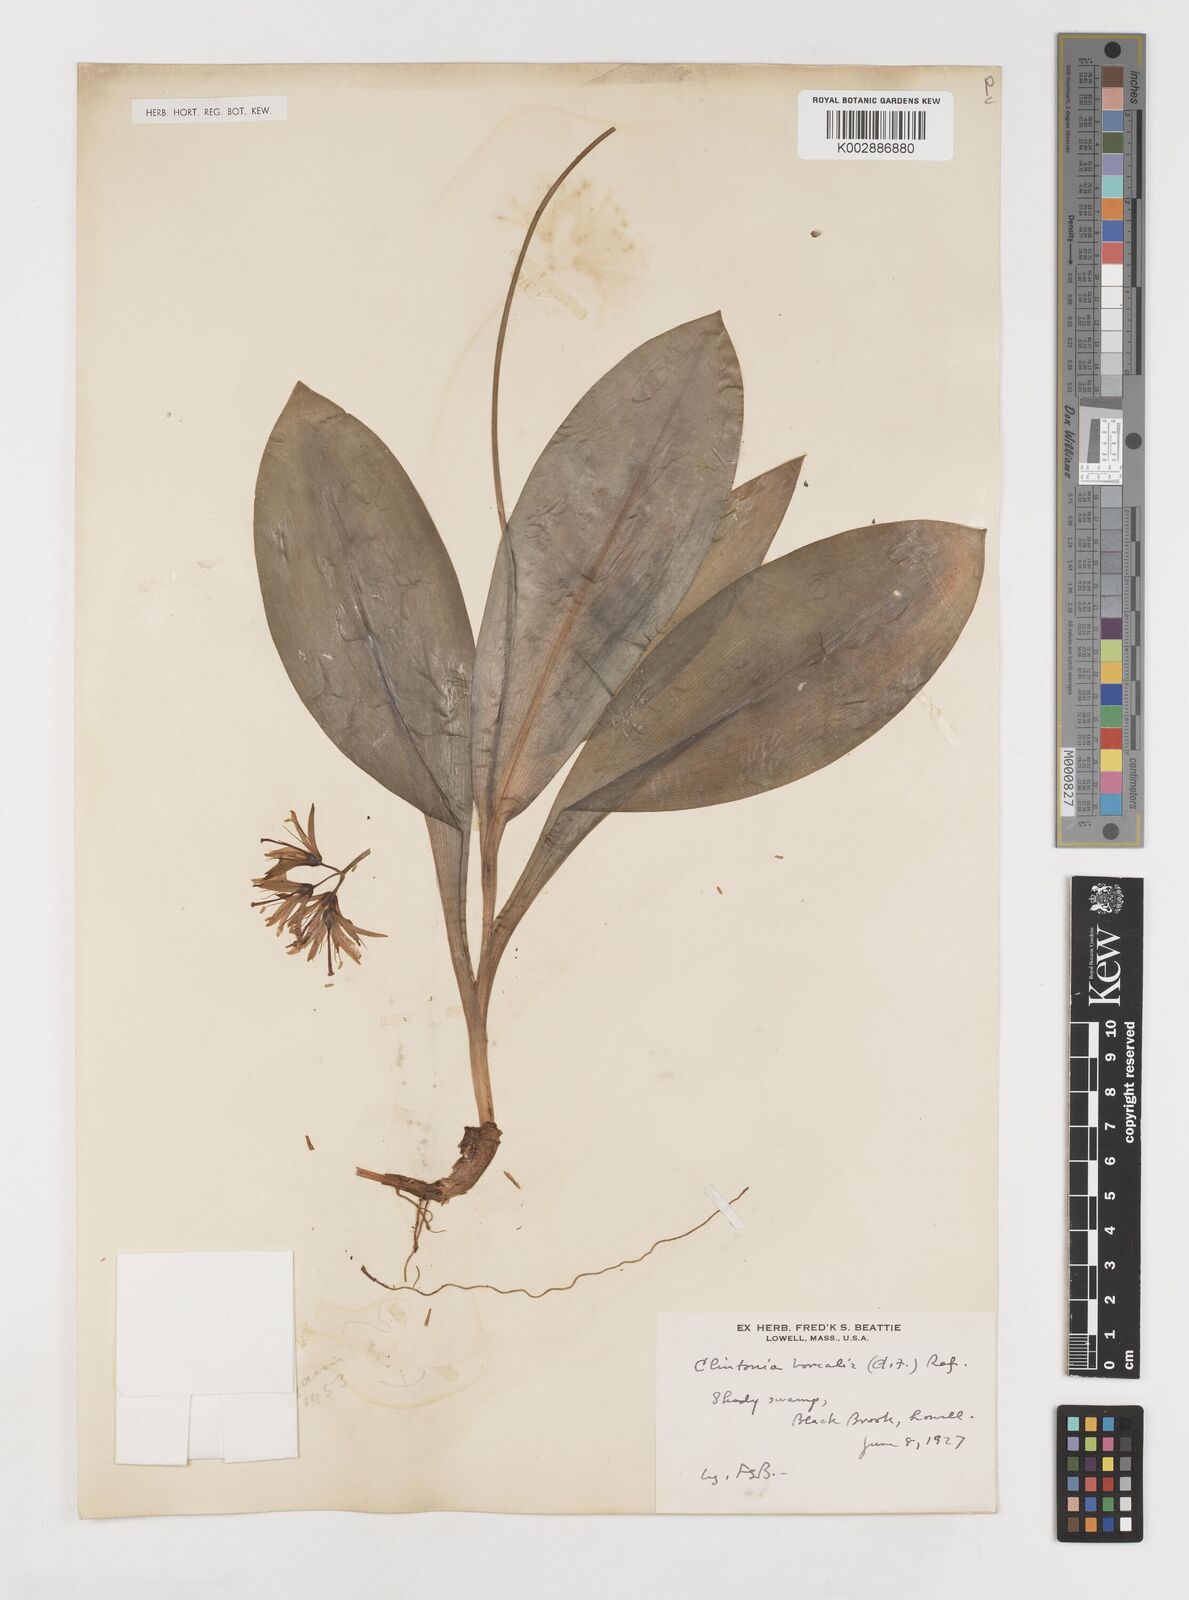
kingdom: Plantae
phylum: Tracheophyta
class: Liliopsida
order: Liliales
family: Liliaceae
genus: Clintonia
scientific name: Clintonia borealis
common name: Yellow clintonia
